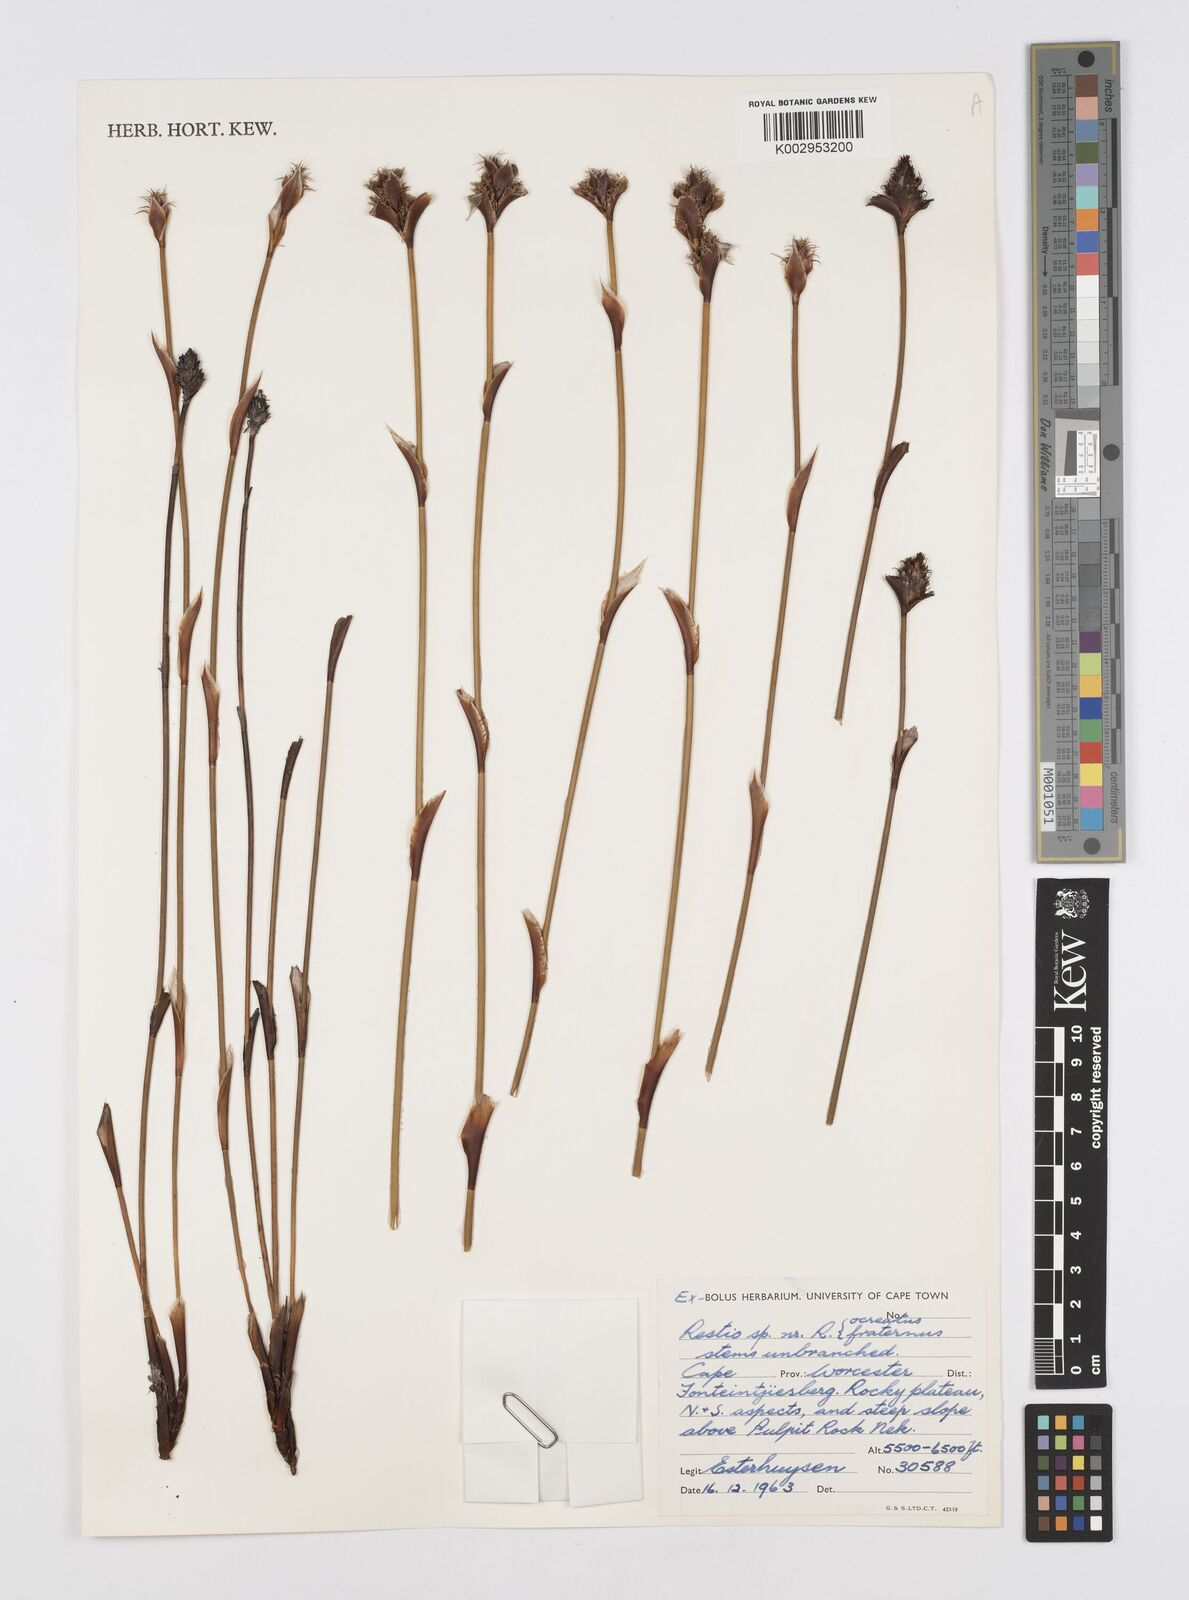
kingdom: Plantae
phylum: Tracheophyta
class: Liliopsida
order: Poales
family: Restionaceae
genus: Restio
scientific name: Restio fraternus
